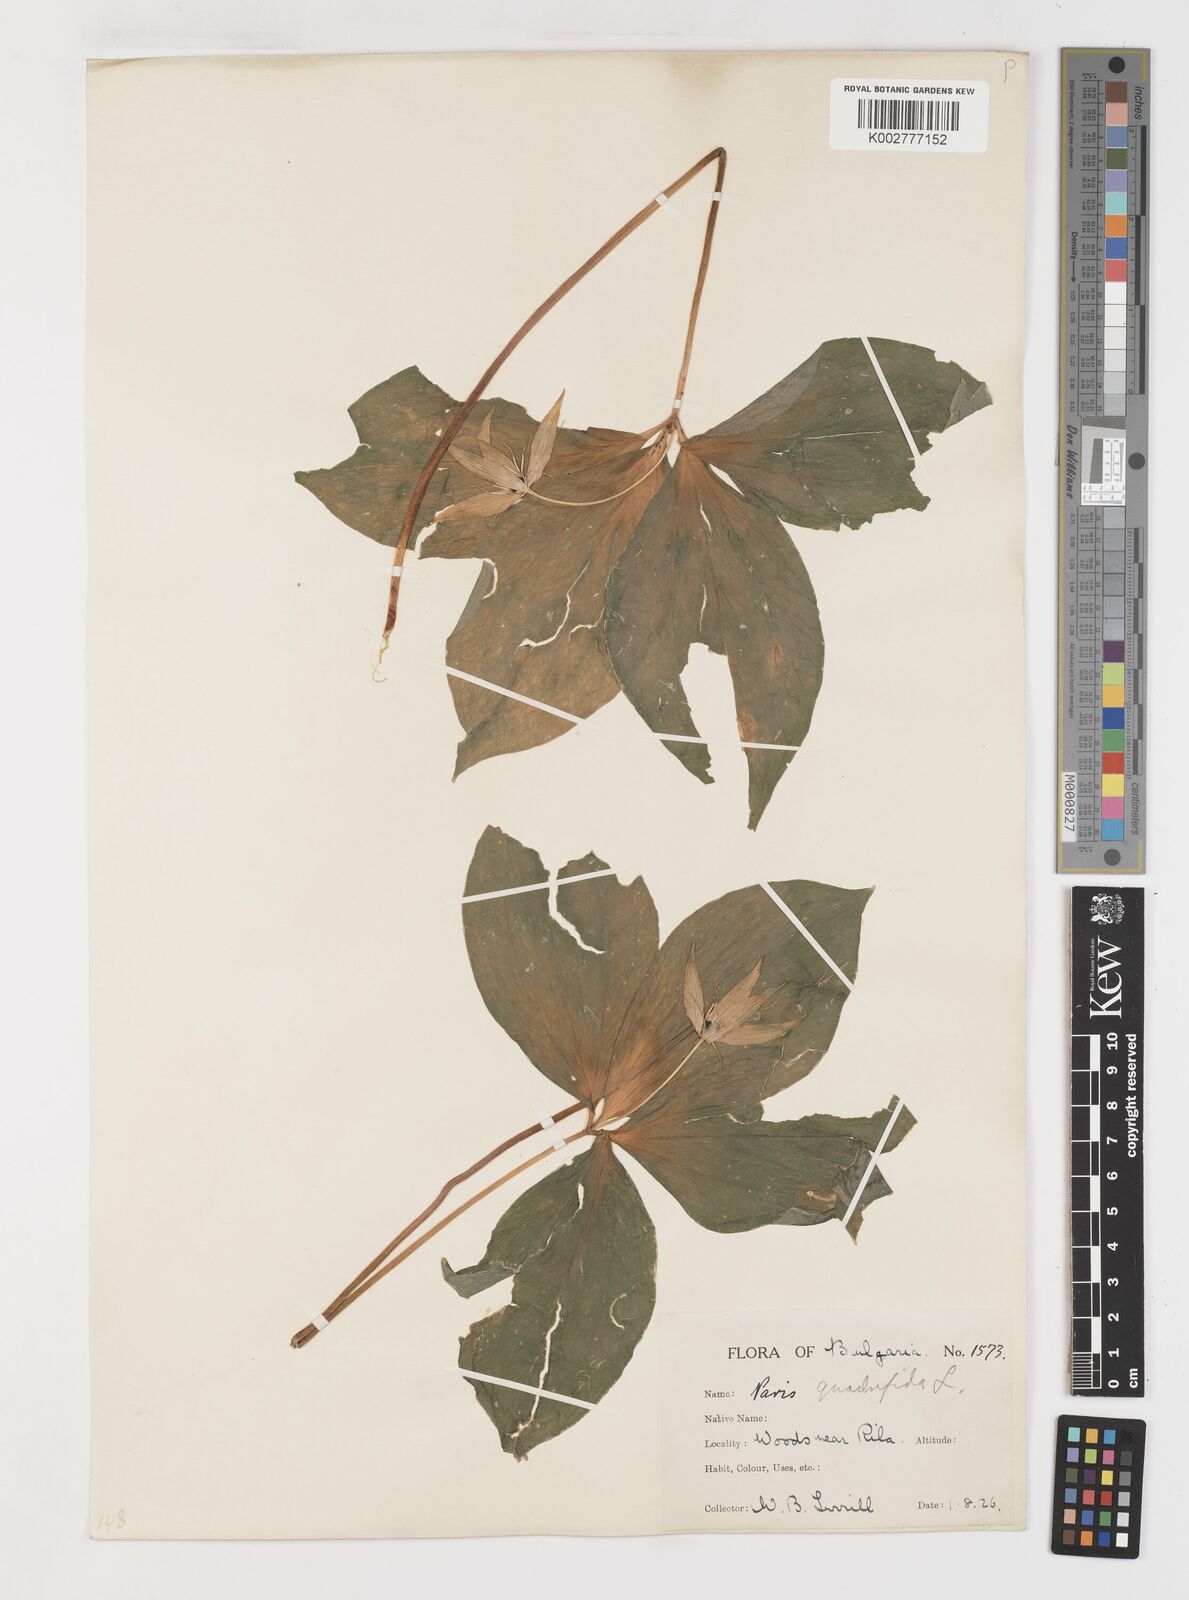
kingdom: Plantae
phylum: Tracheophyta
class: Liliopsida
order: Liliales
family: Melanthiaceae
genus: Paris
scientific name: Paris quadrifolia
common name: Herb-paris
